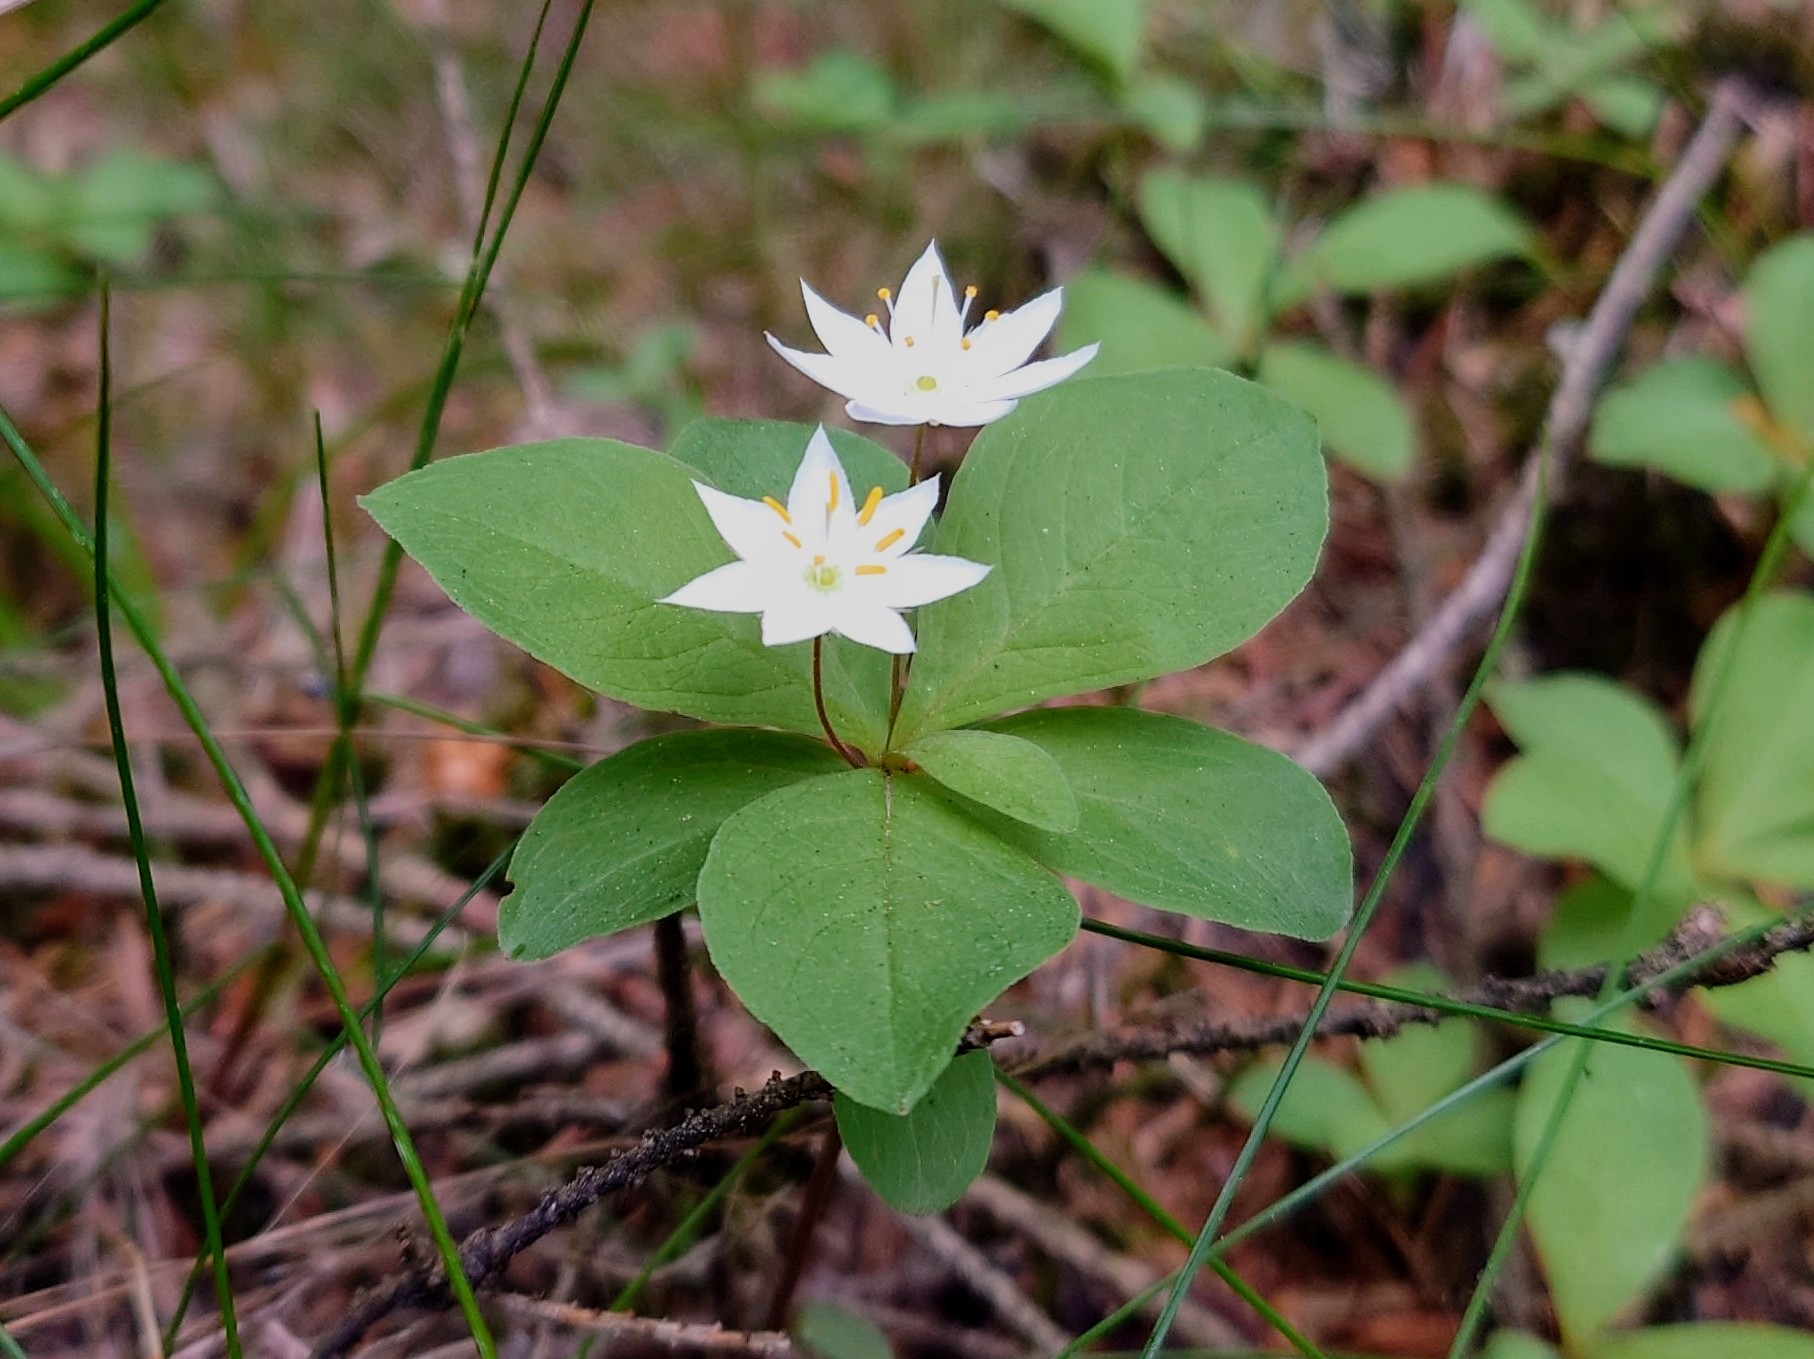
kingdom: Plantae
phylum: Tracheophyta
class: Magnoliopsida
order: Ericales
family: Primulaceae
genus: Lysimachia
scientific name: Lysimachia europaea
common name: Skovstjerne
